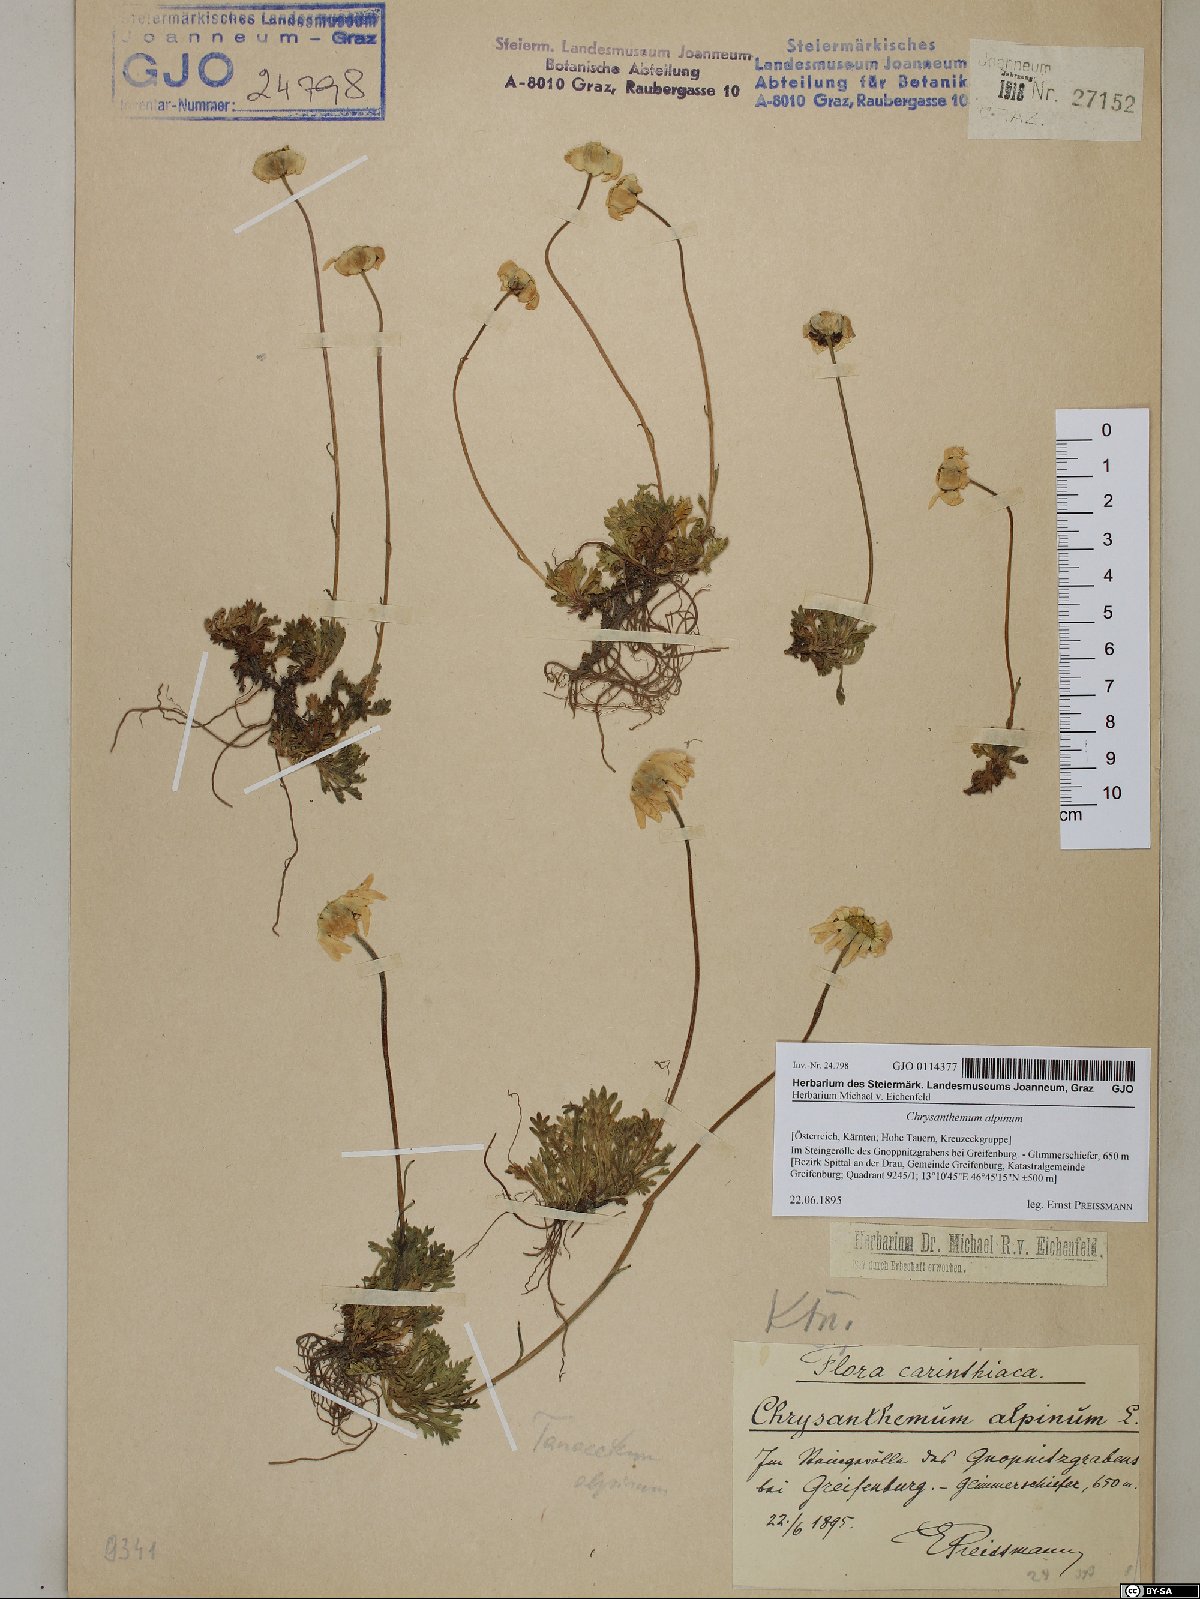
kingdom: Plantae
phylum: Tracheophyta
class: Magnoliopsida
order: Asterales
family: Asteraceae
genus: Leucanthemopsis
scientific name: Leucanthemopsis alpina
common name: Alpine moon daisy
